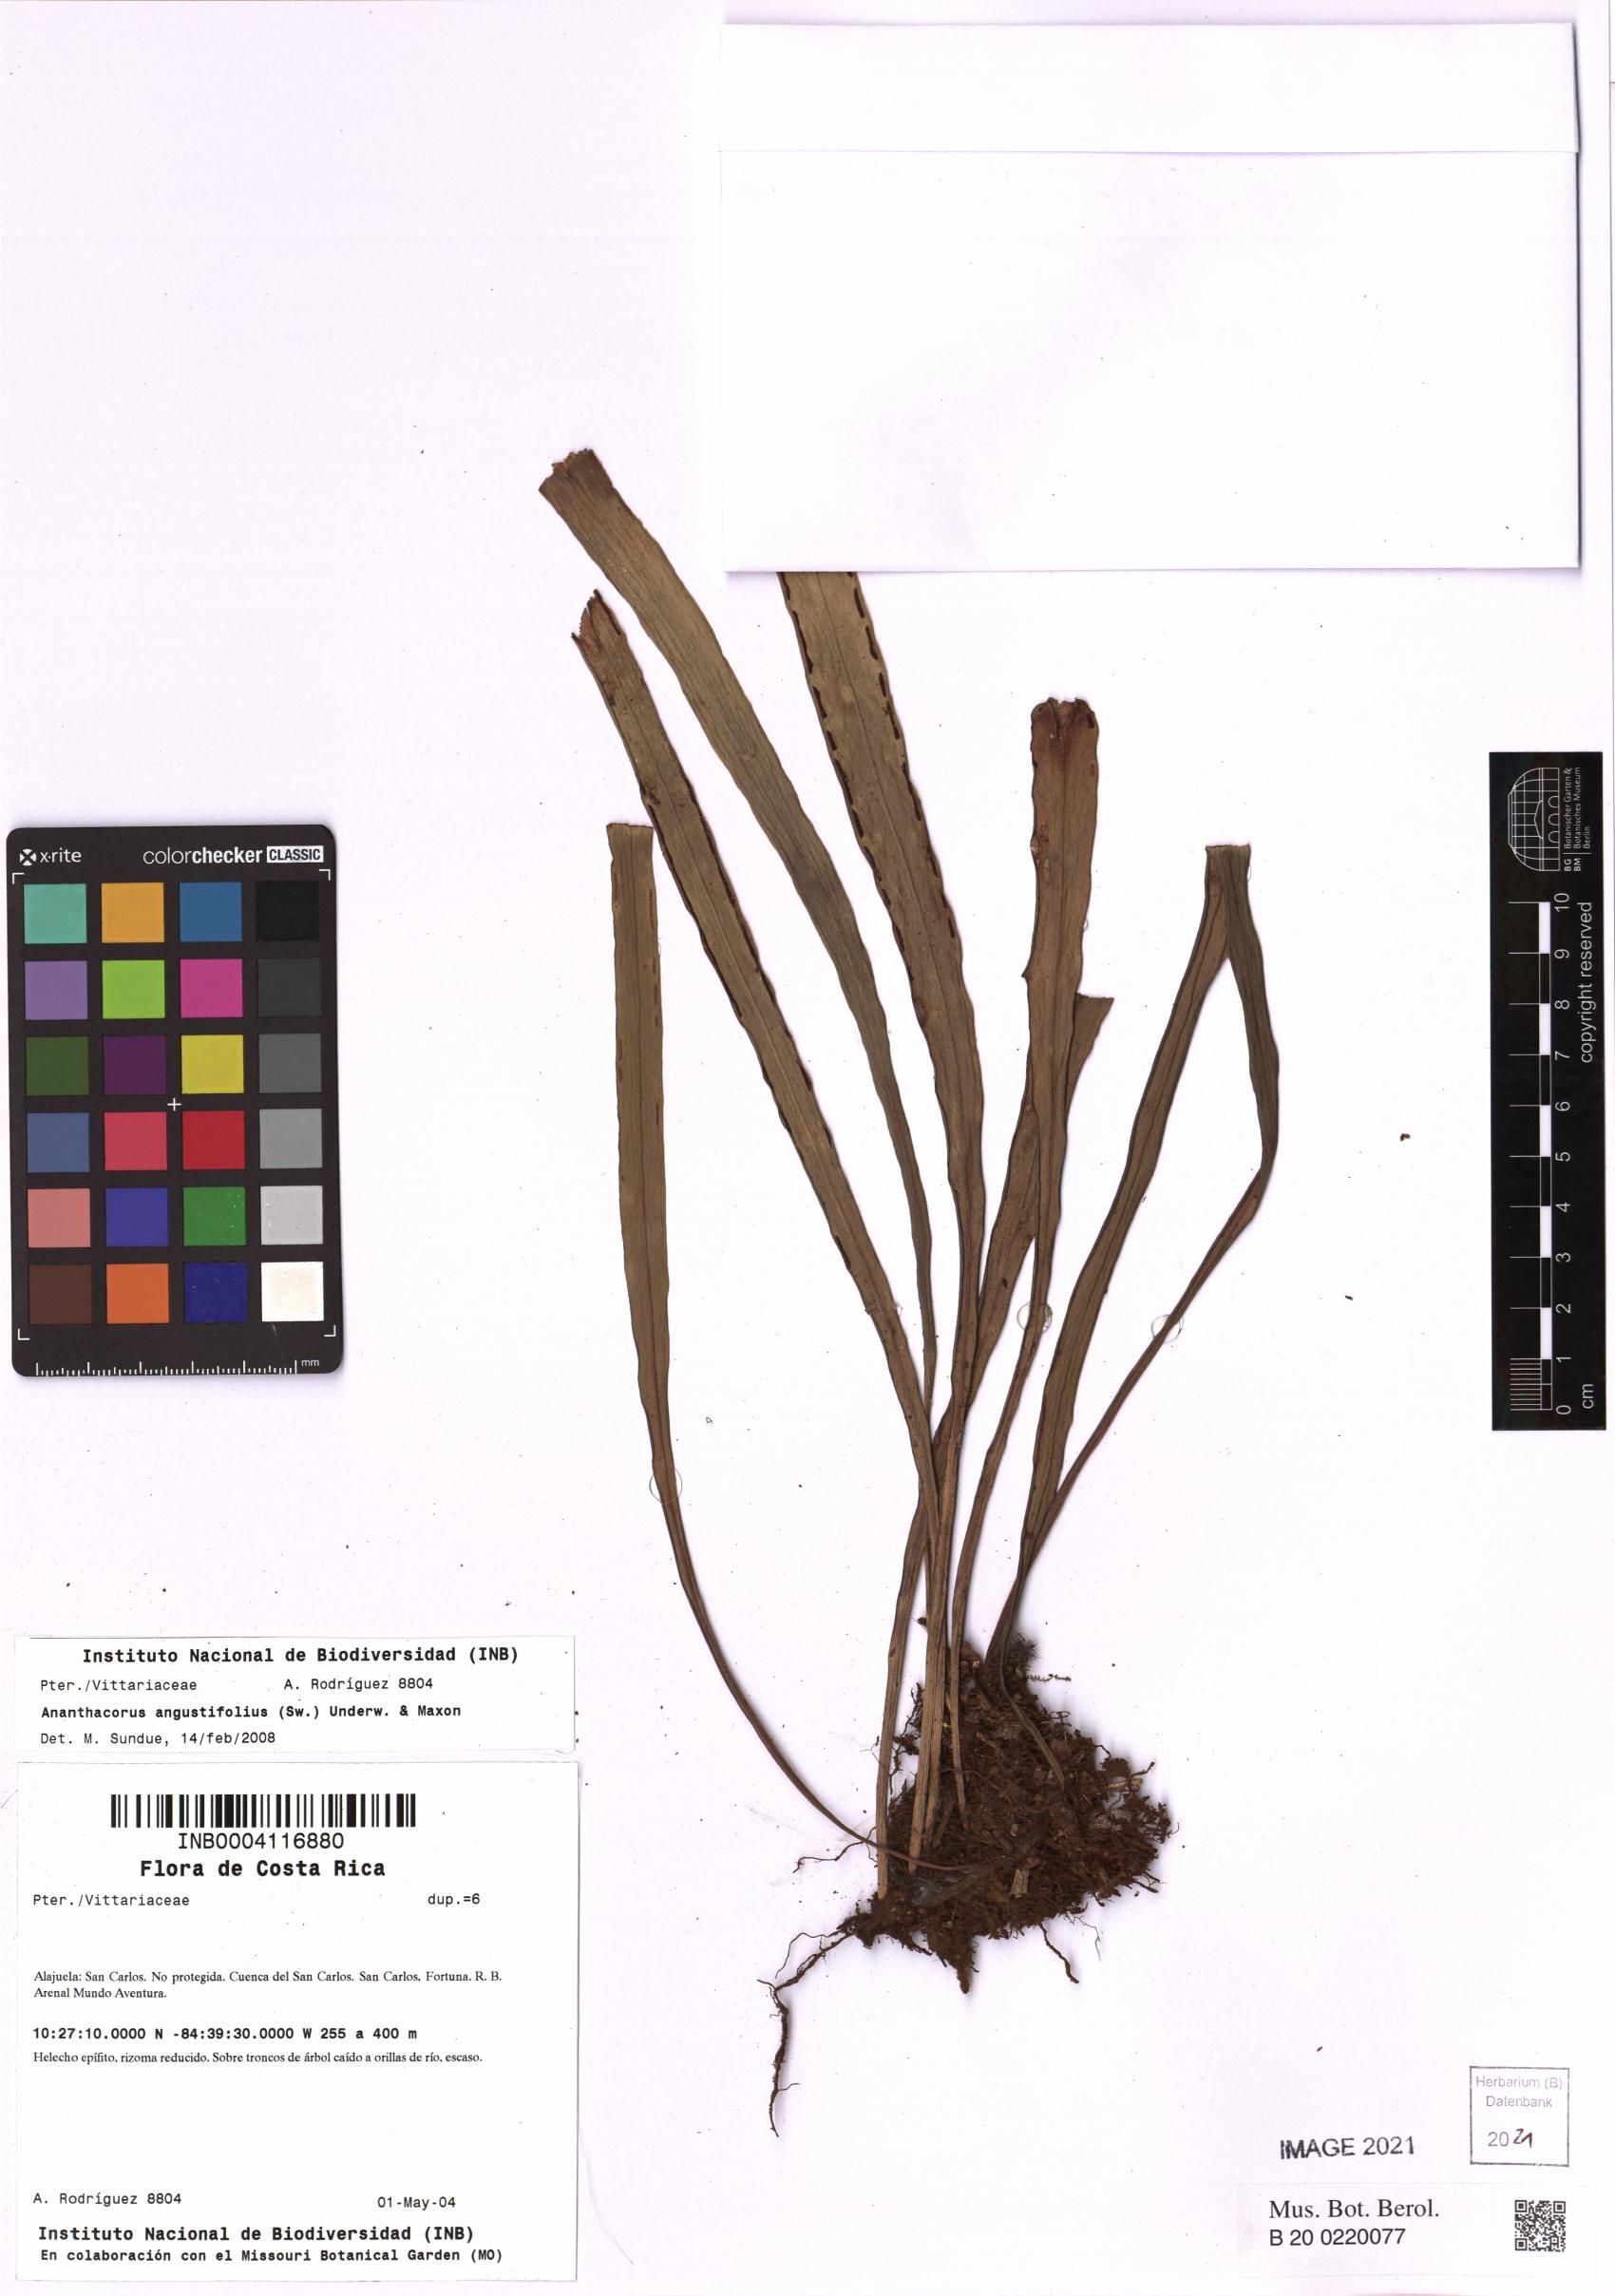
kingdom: Plantae
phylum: Tracheophyta
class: Polypodiopsida
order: Polypodiales
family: Pteridaceae
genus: Ananthacorus
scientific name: Ananthacorus angustifolius
